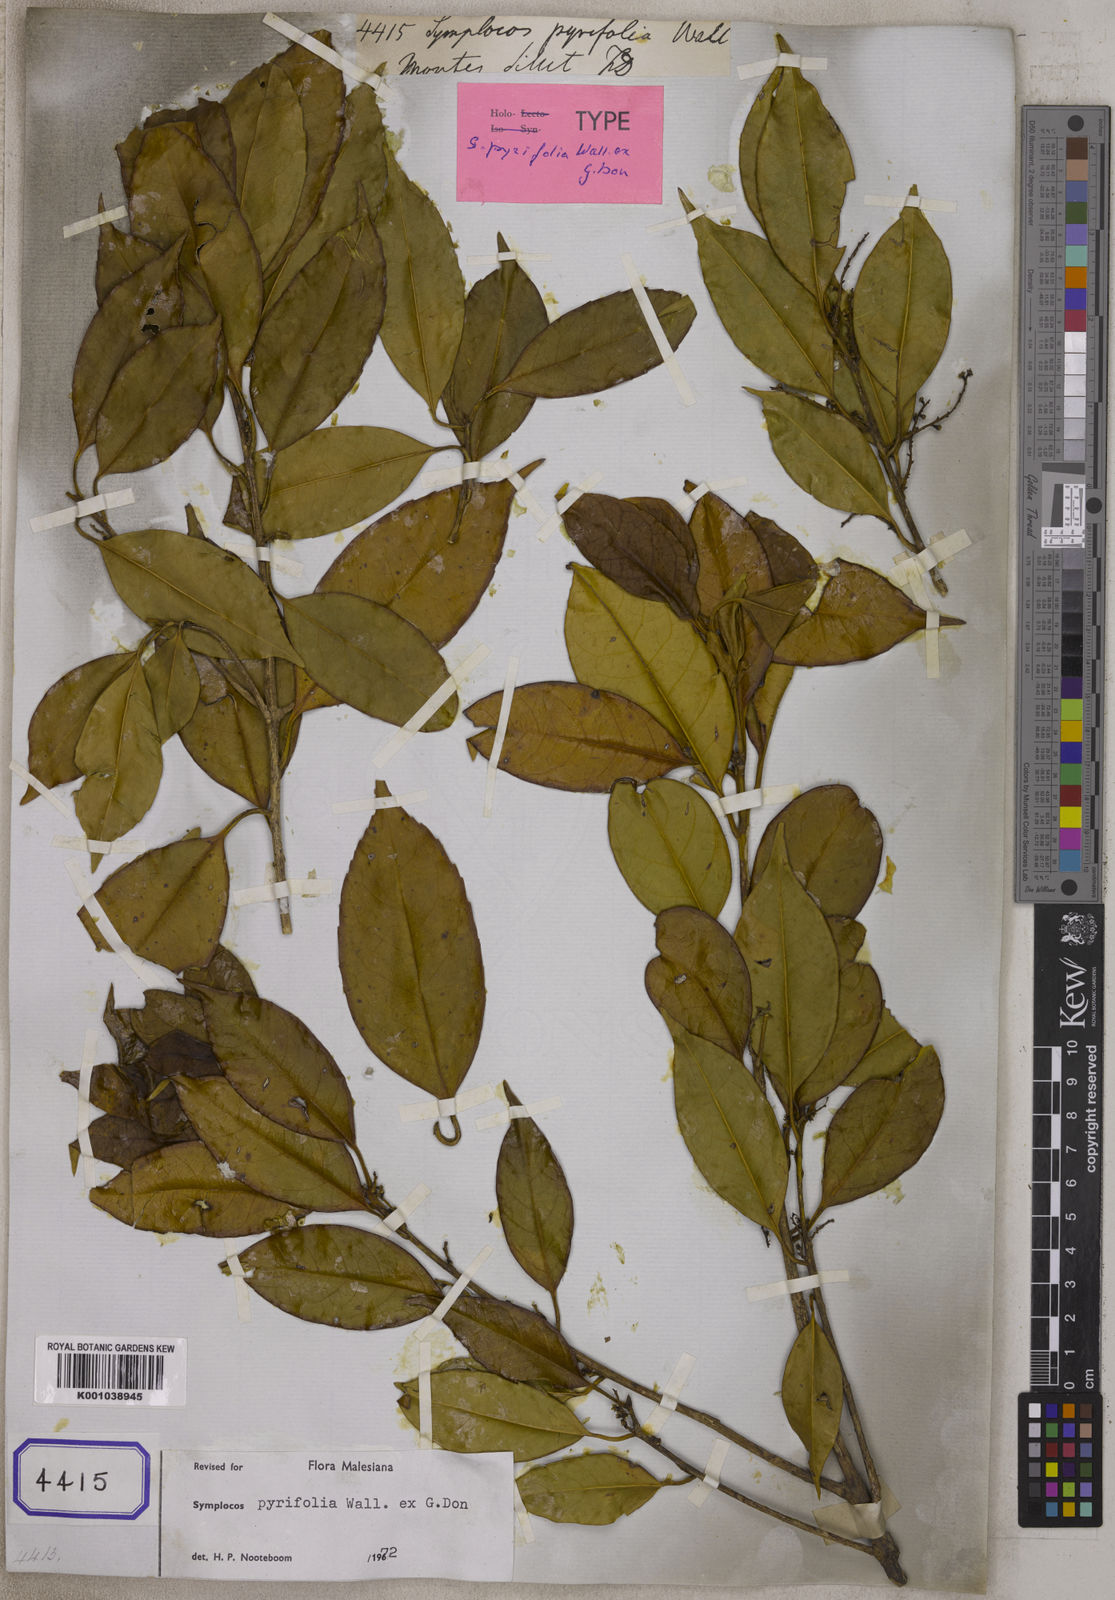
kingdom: Plantae
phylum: Tracheophyta
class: Magnoliopsida
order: Ericales
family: Symplocaceae
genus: Symplocos
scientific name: Symplocos
